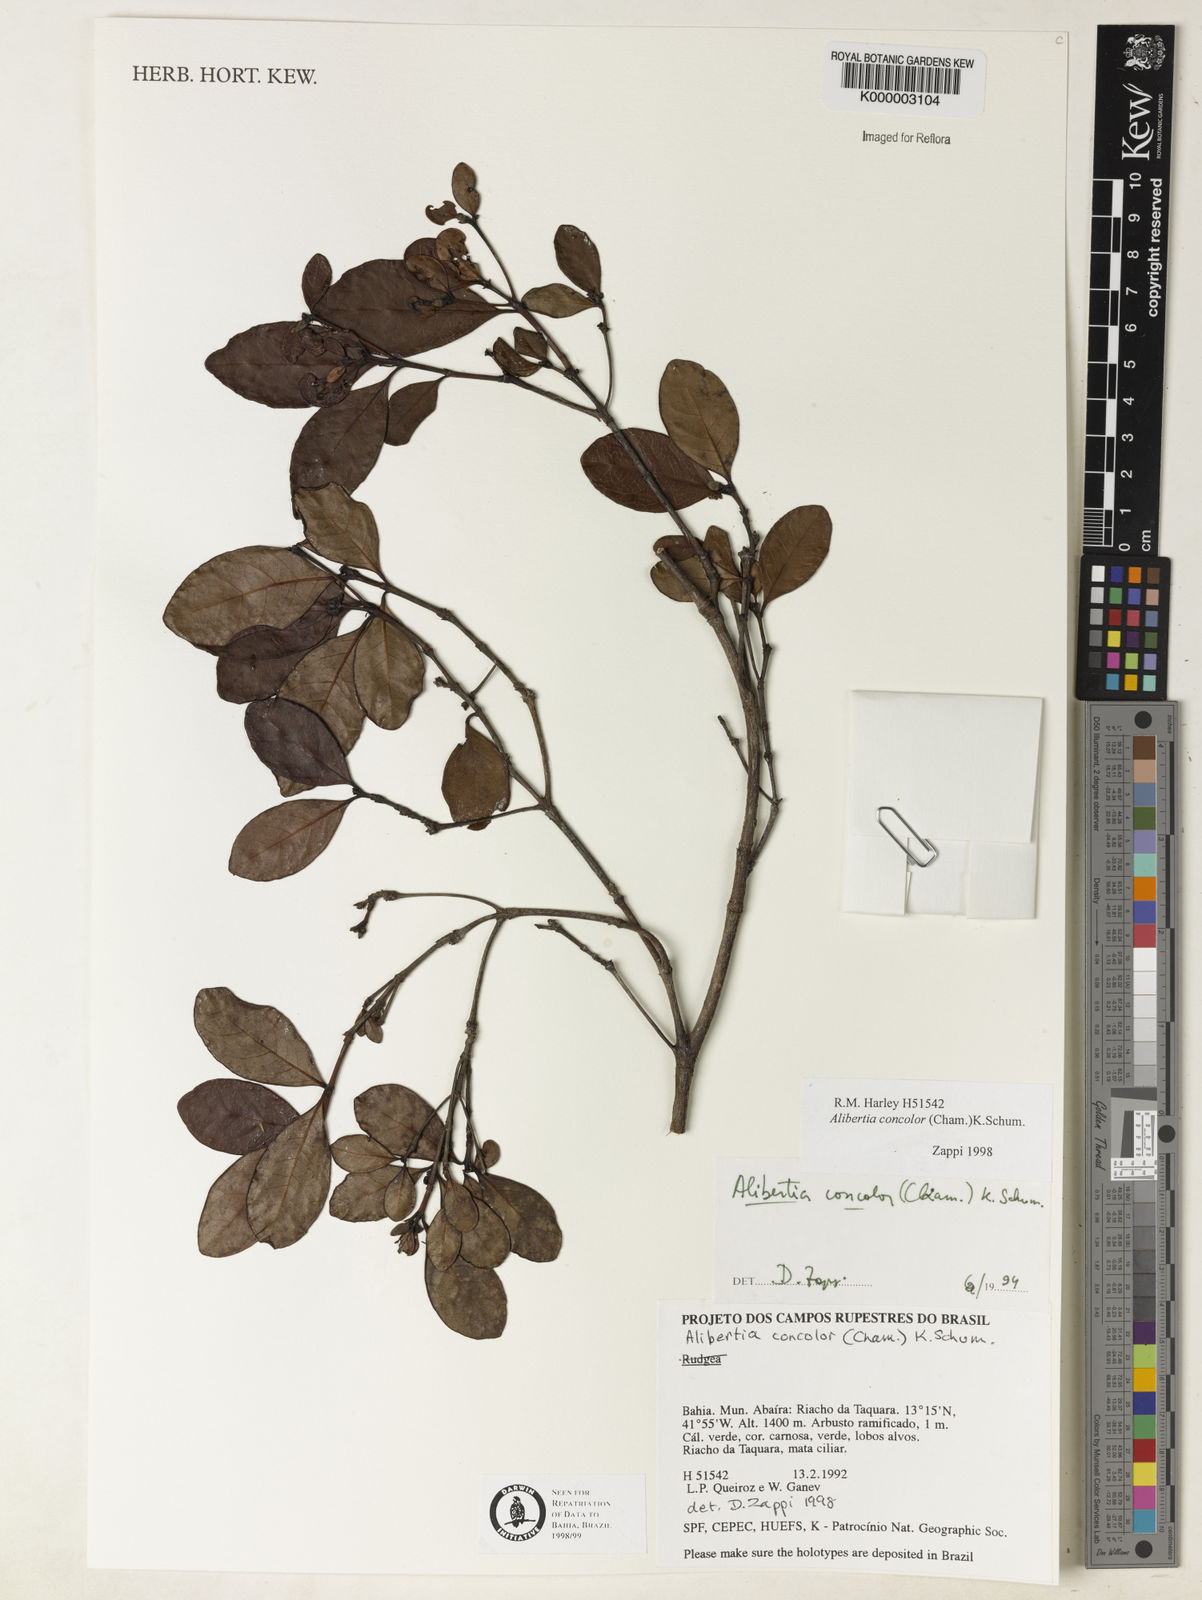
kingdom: Plantae
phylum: Tracheophyta
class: Magnoliopsida
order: Gentianales
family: Rubiaceae
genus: Cordiera
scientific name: Cordiera concolor
